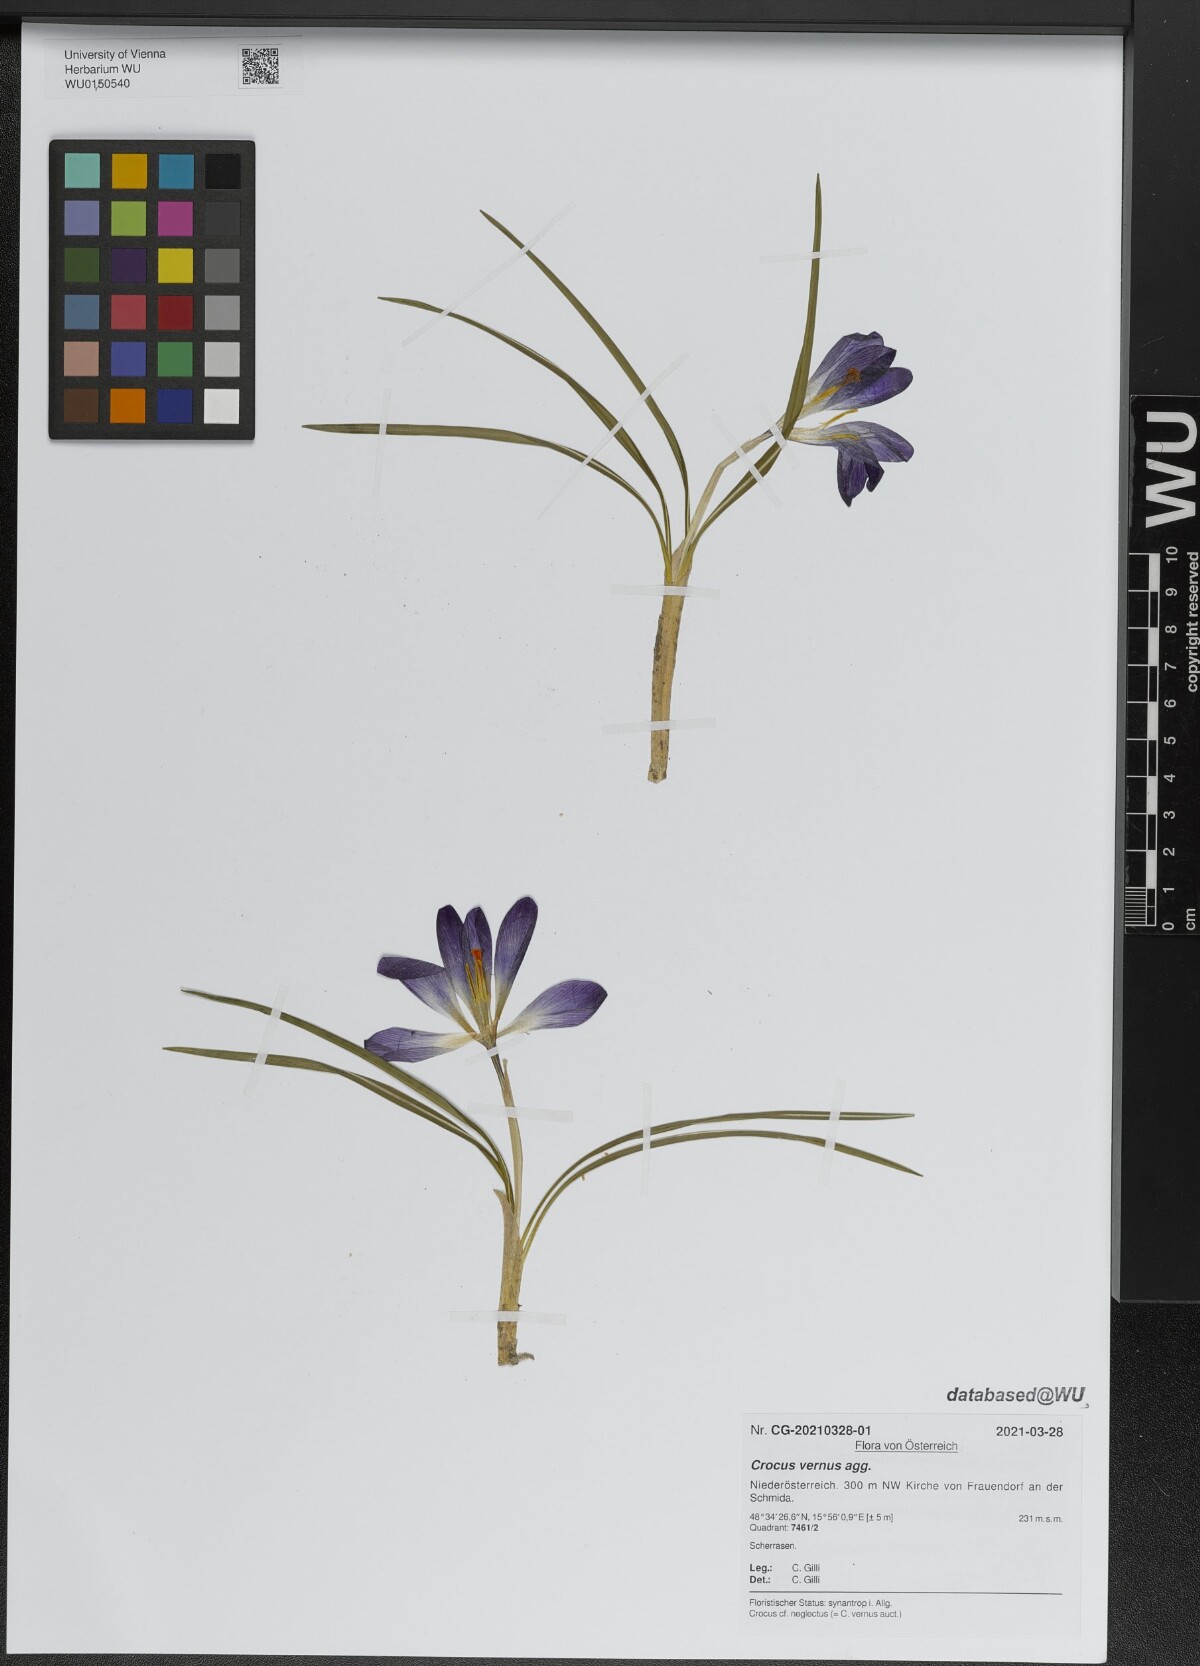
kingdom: Plantae
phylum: Tracheophyta
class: Liliopsida
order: Asparagales
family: Iridaceae
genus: Crocus
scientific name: Crocus vernus
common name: Spring crocus
